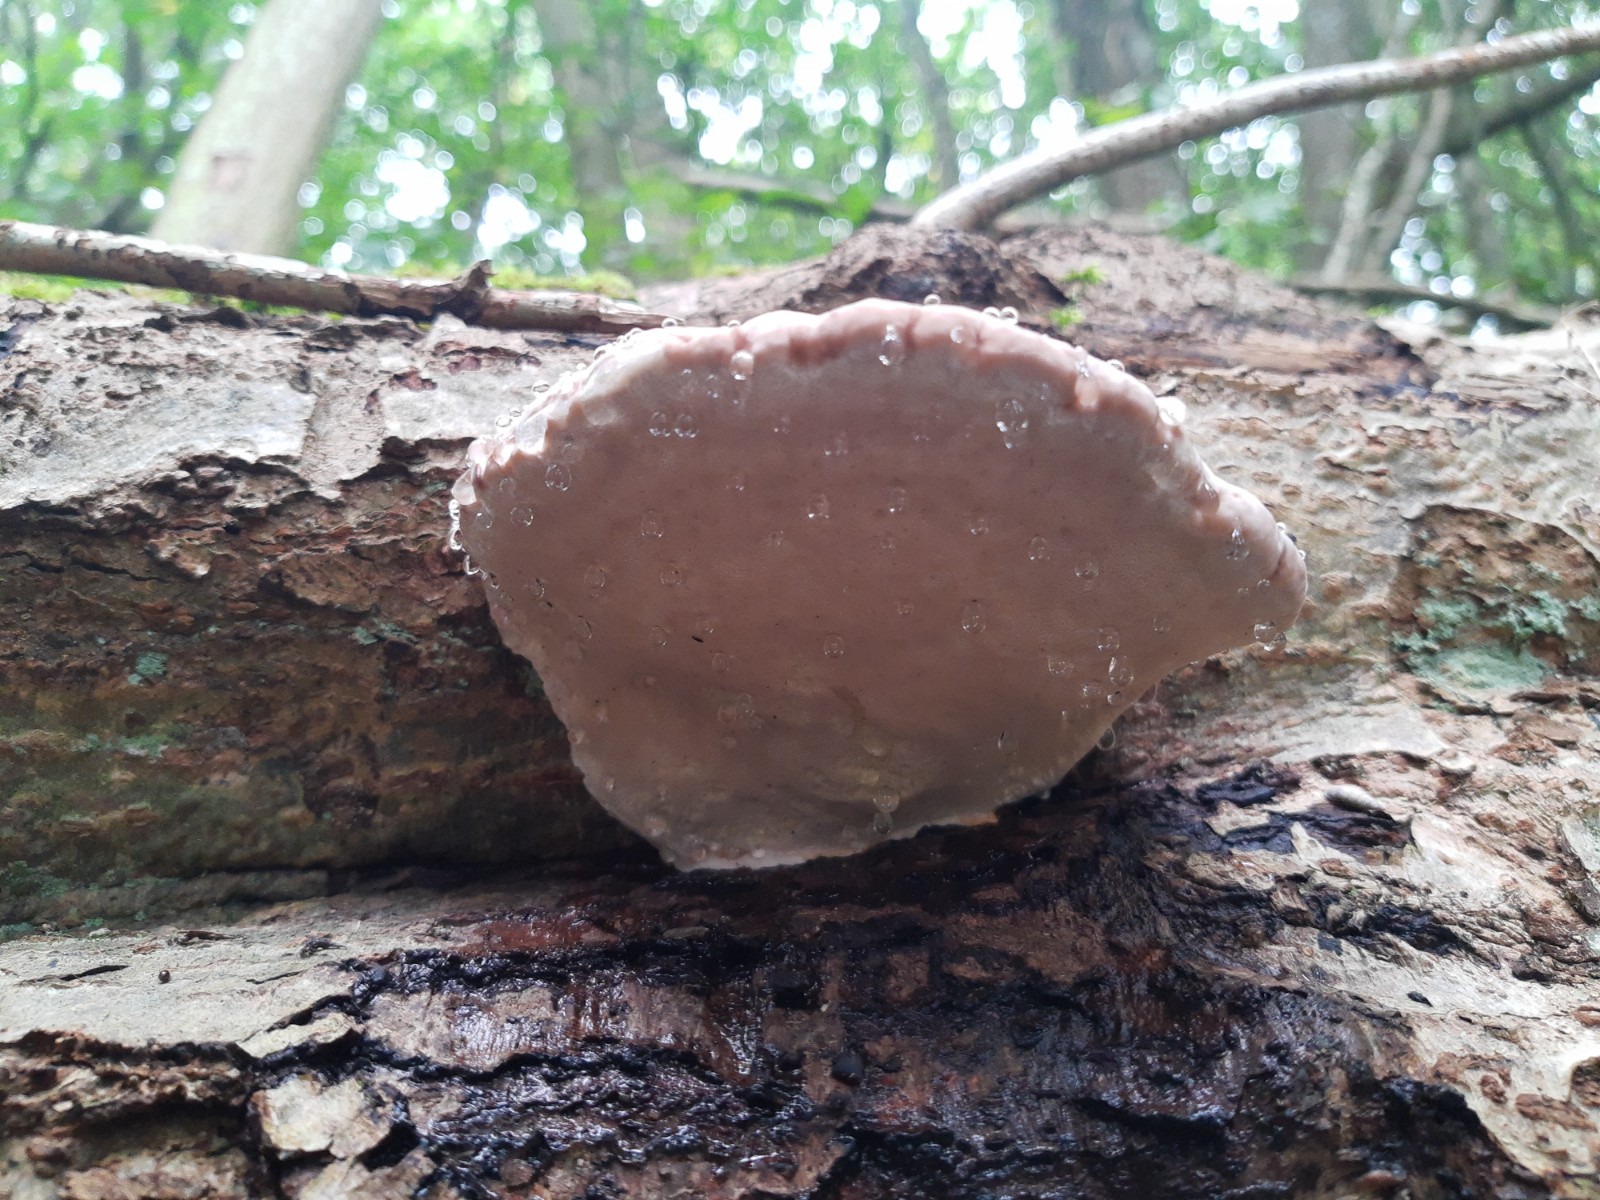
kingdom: Fungi
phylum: Basidiomycota
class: Agaricomycetes
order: Polyporales
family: Fomitopsidaceae
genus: Fomitopsis
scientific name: Fomitopsis pinicola
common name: randbæltet hovporesvamp
